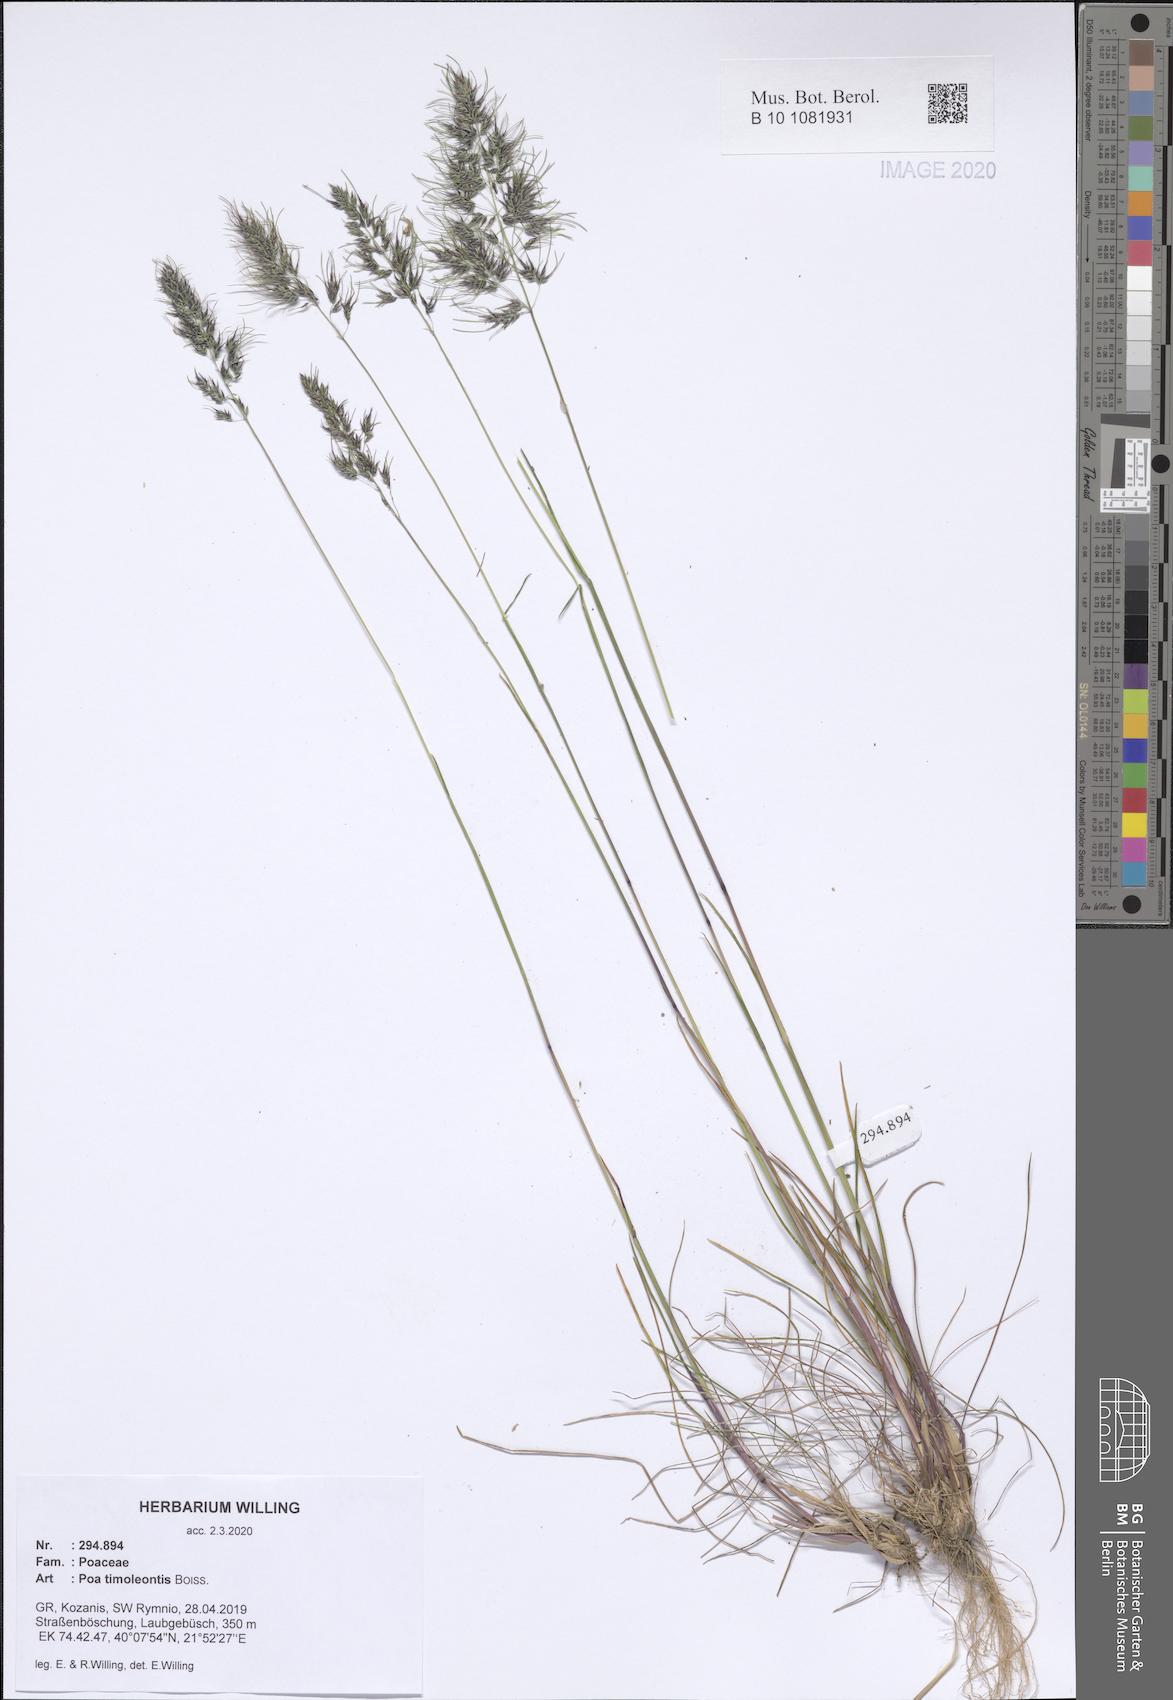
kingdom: Plantae
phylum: Tracheophyta
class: Liliopsida
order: Poales
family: Poaceae
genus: Poa
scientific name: Poa timoleontis
